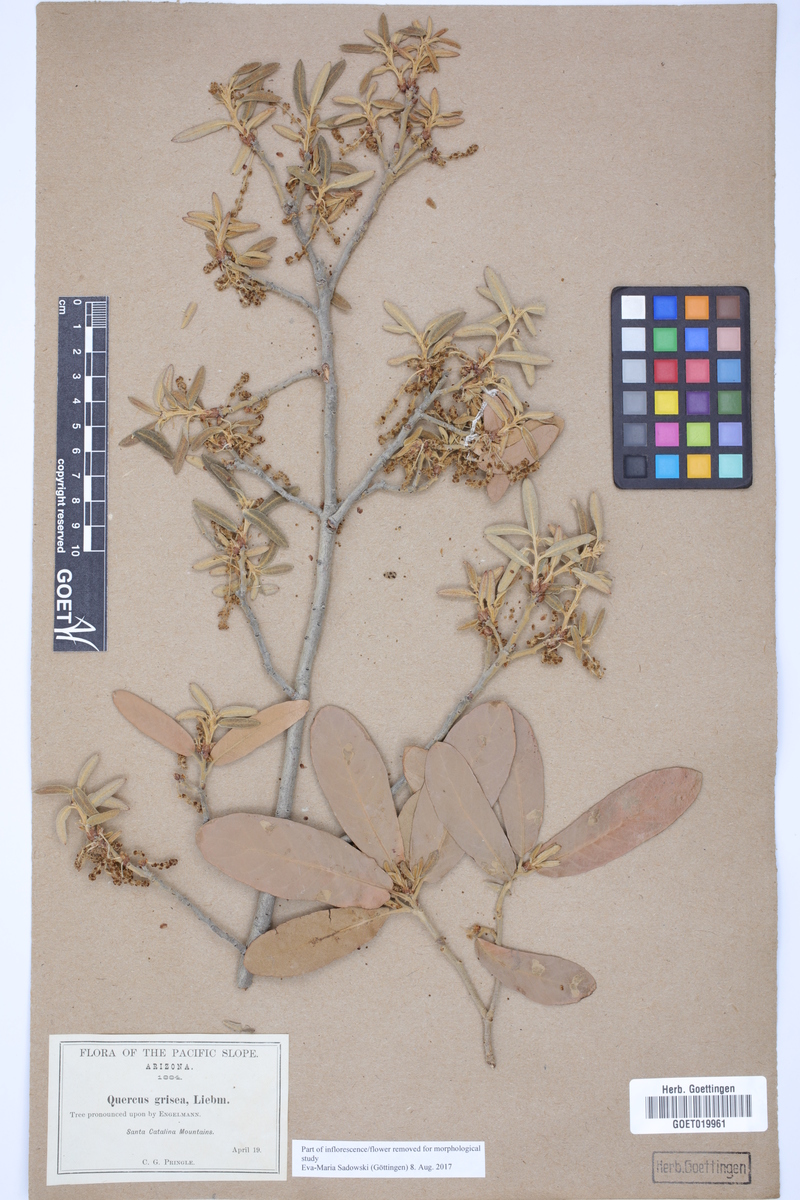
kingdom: Plantae
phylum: Tracheophyta
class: Magnoliopsida
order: Fagales
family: Fagaceae
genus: Quercus
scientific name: Quercus grisea
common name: Gray oak
